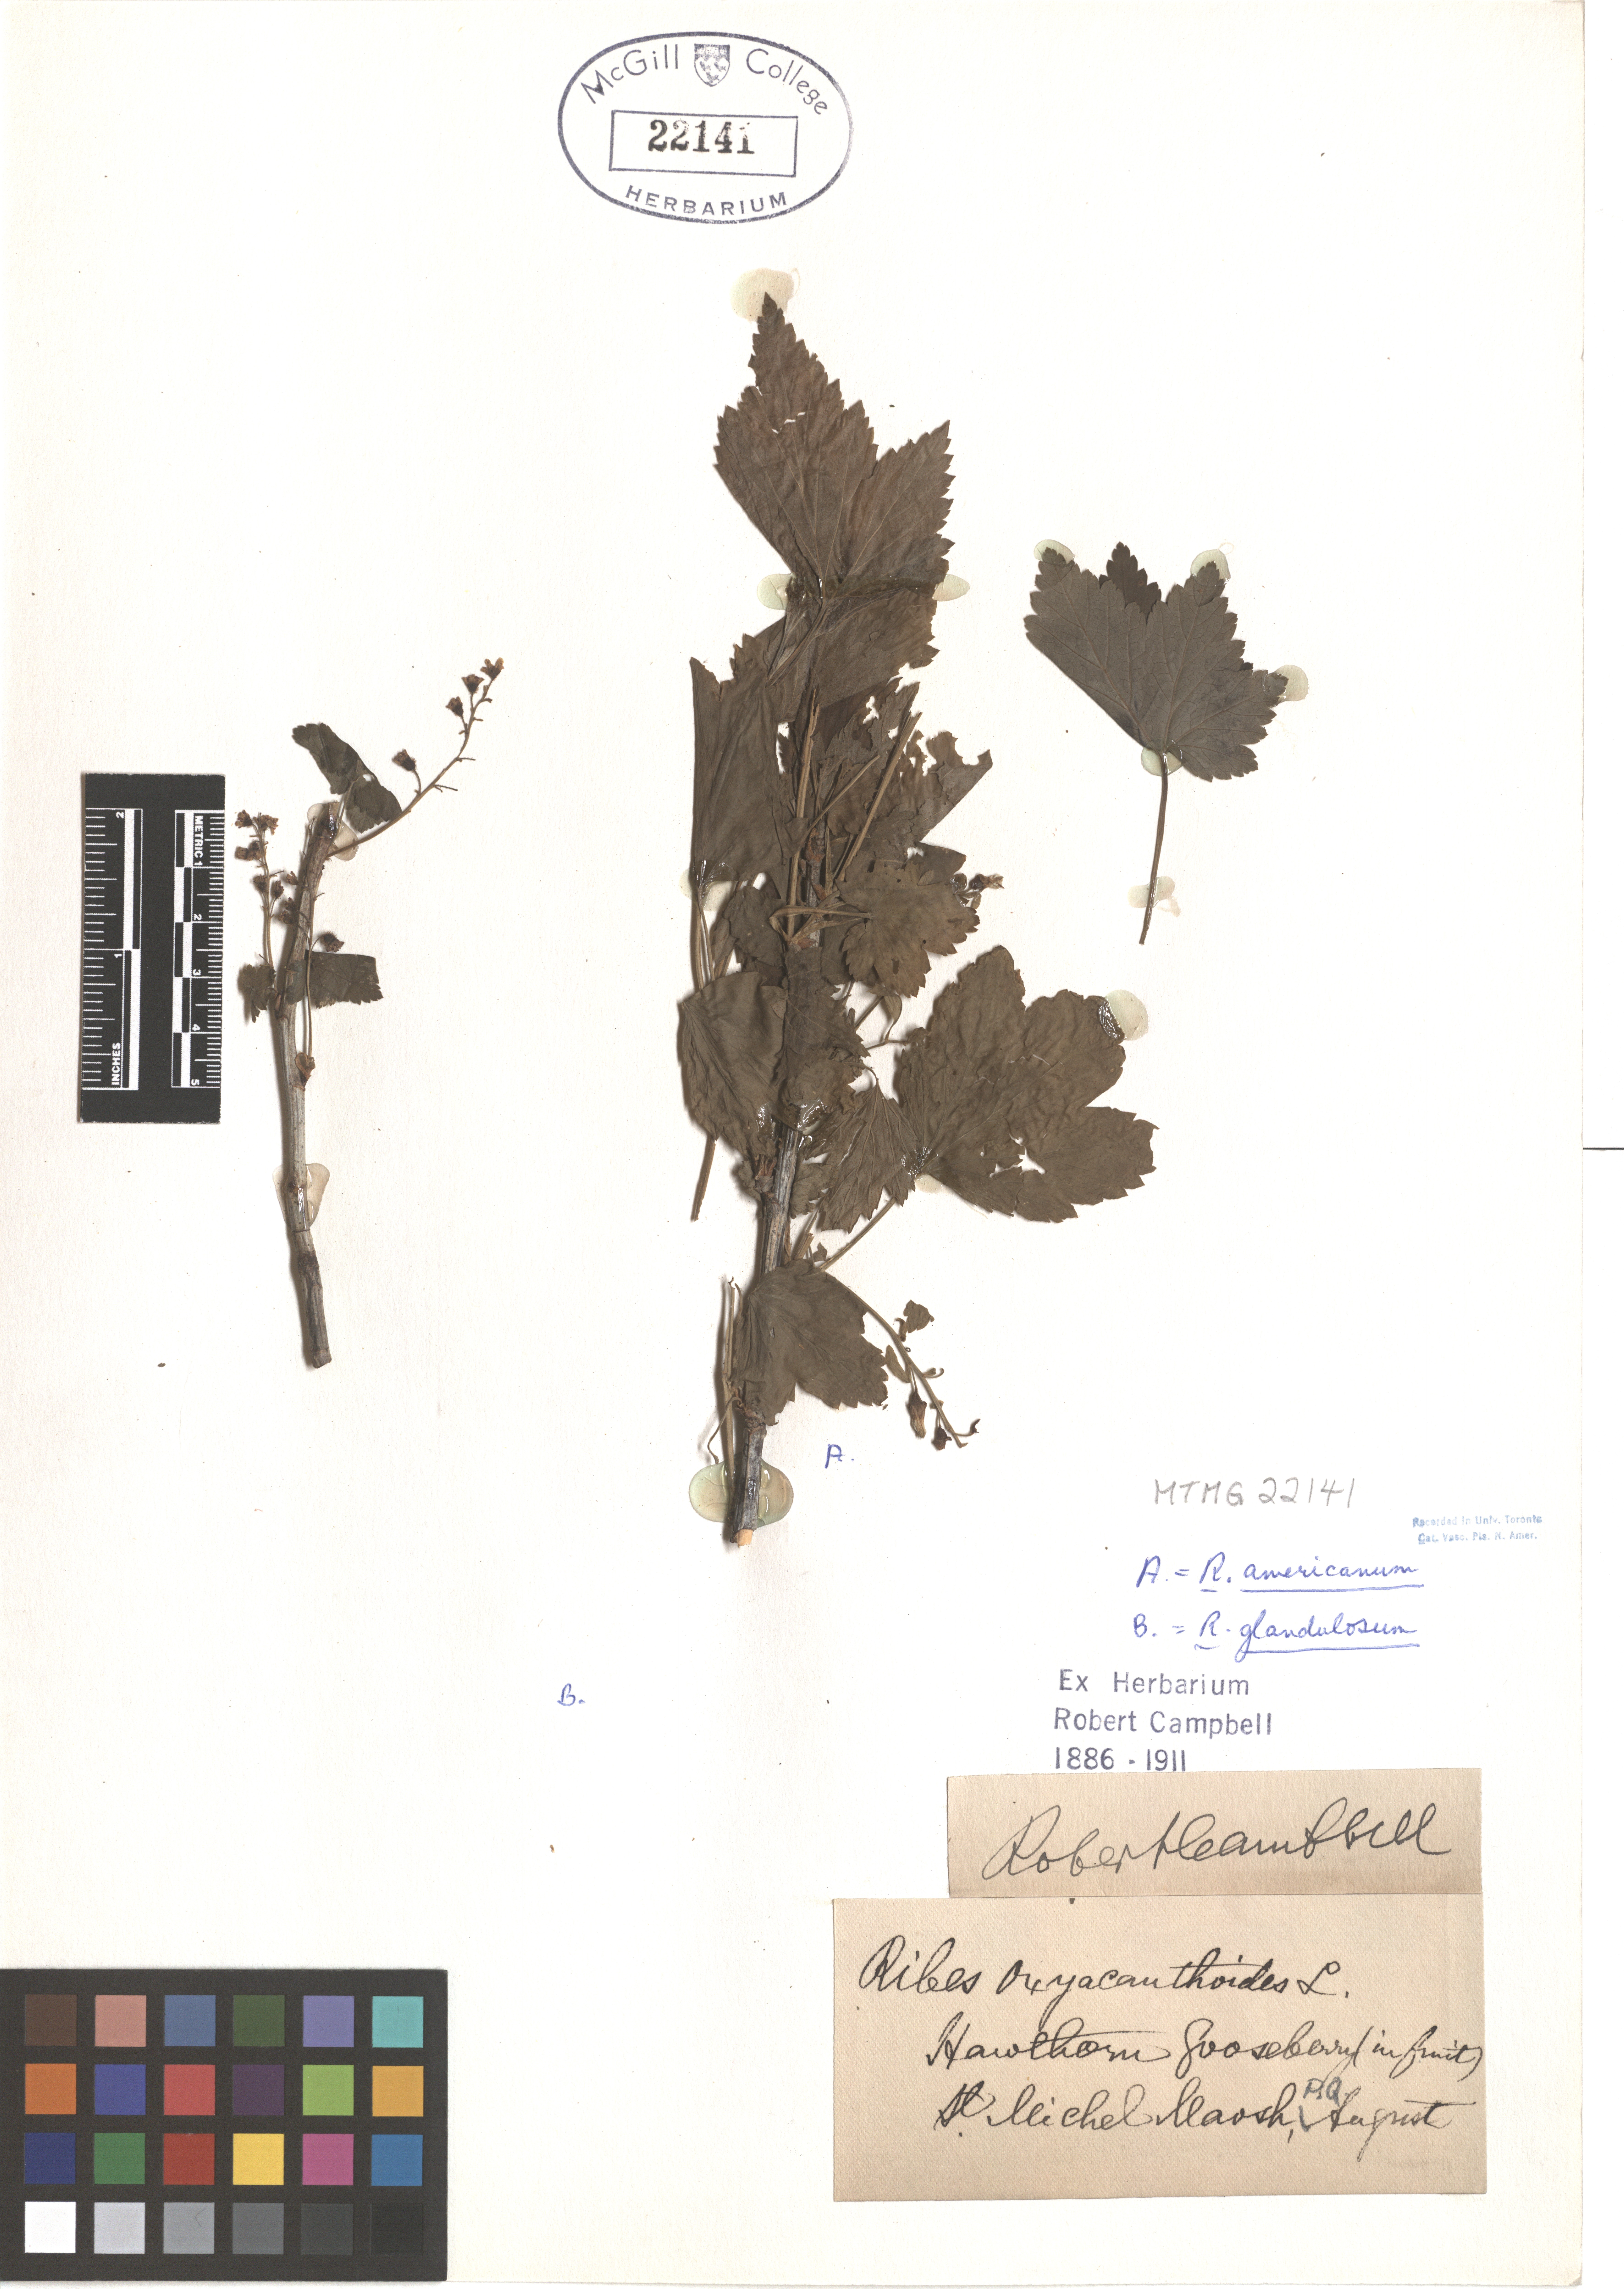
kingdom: Plantae
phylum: Tracheophyta
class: Magnoliopsida
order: Saxifragales
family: Grossulariaceae
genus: Ribes
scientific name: Ribes americanum
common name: American black currant
